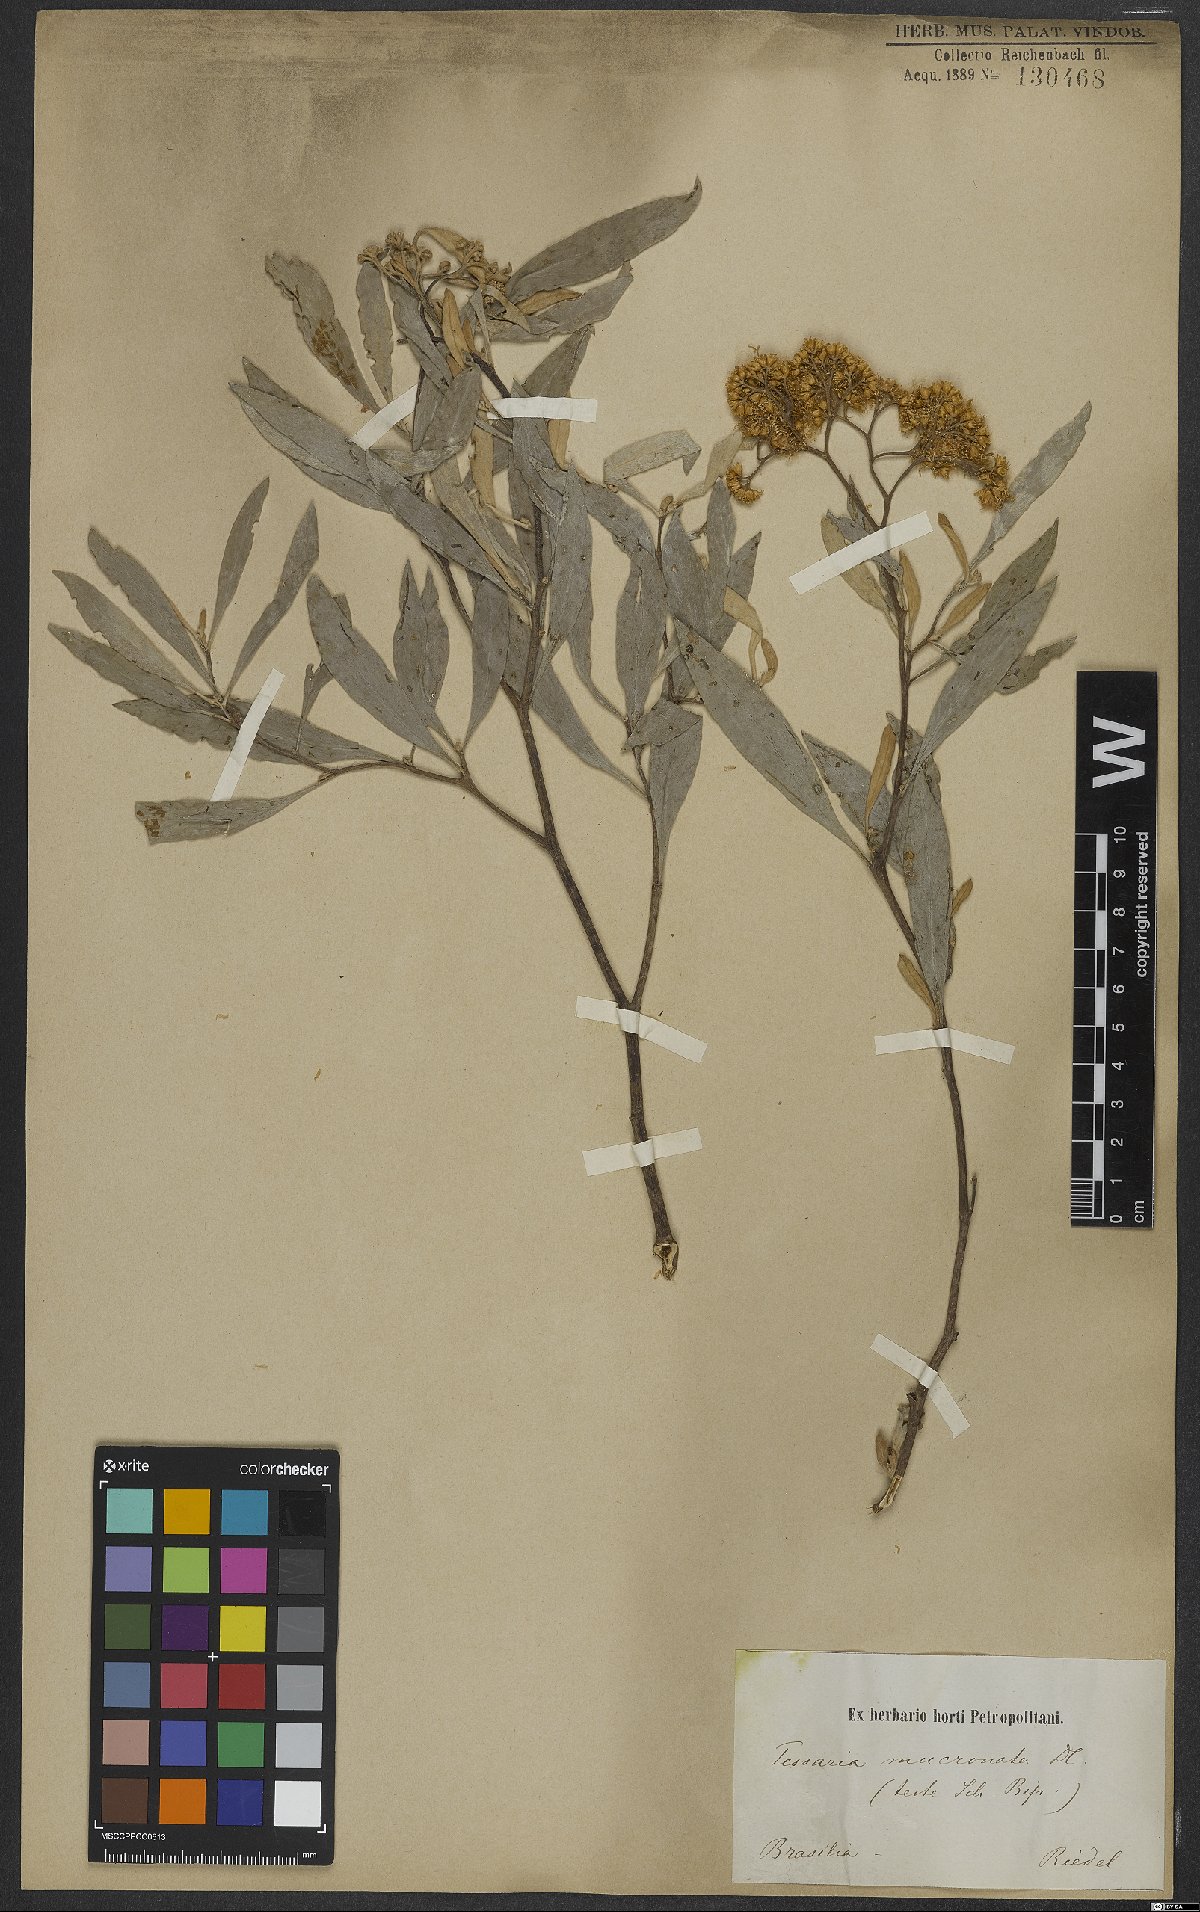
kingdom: Plantae
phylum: Tracheophyta
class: Magnoliopsida
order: Asterales
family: Asteraceae
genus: Tessaria
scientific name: Tessaria integrifolia
